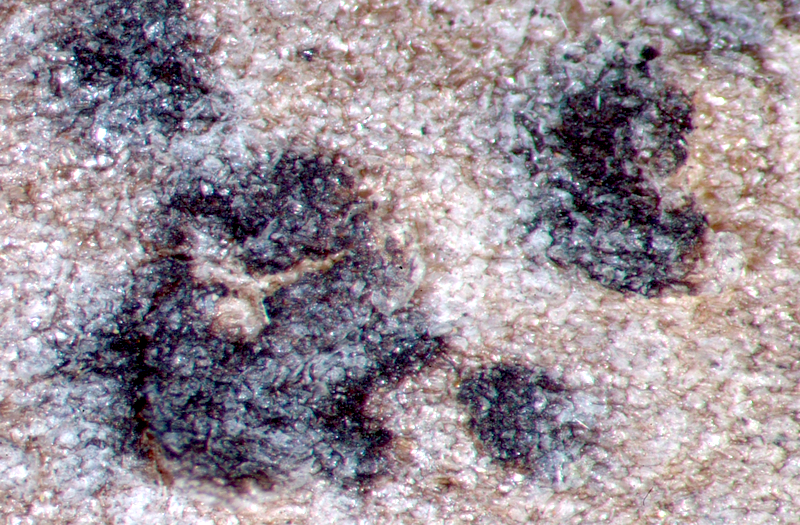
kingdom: Fungi
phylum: Ascomycota
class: Arthoniomycetes
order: Arthoniales
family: Arthoniaceae
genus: Arthonia
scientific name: Arthonia
